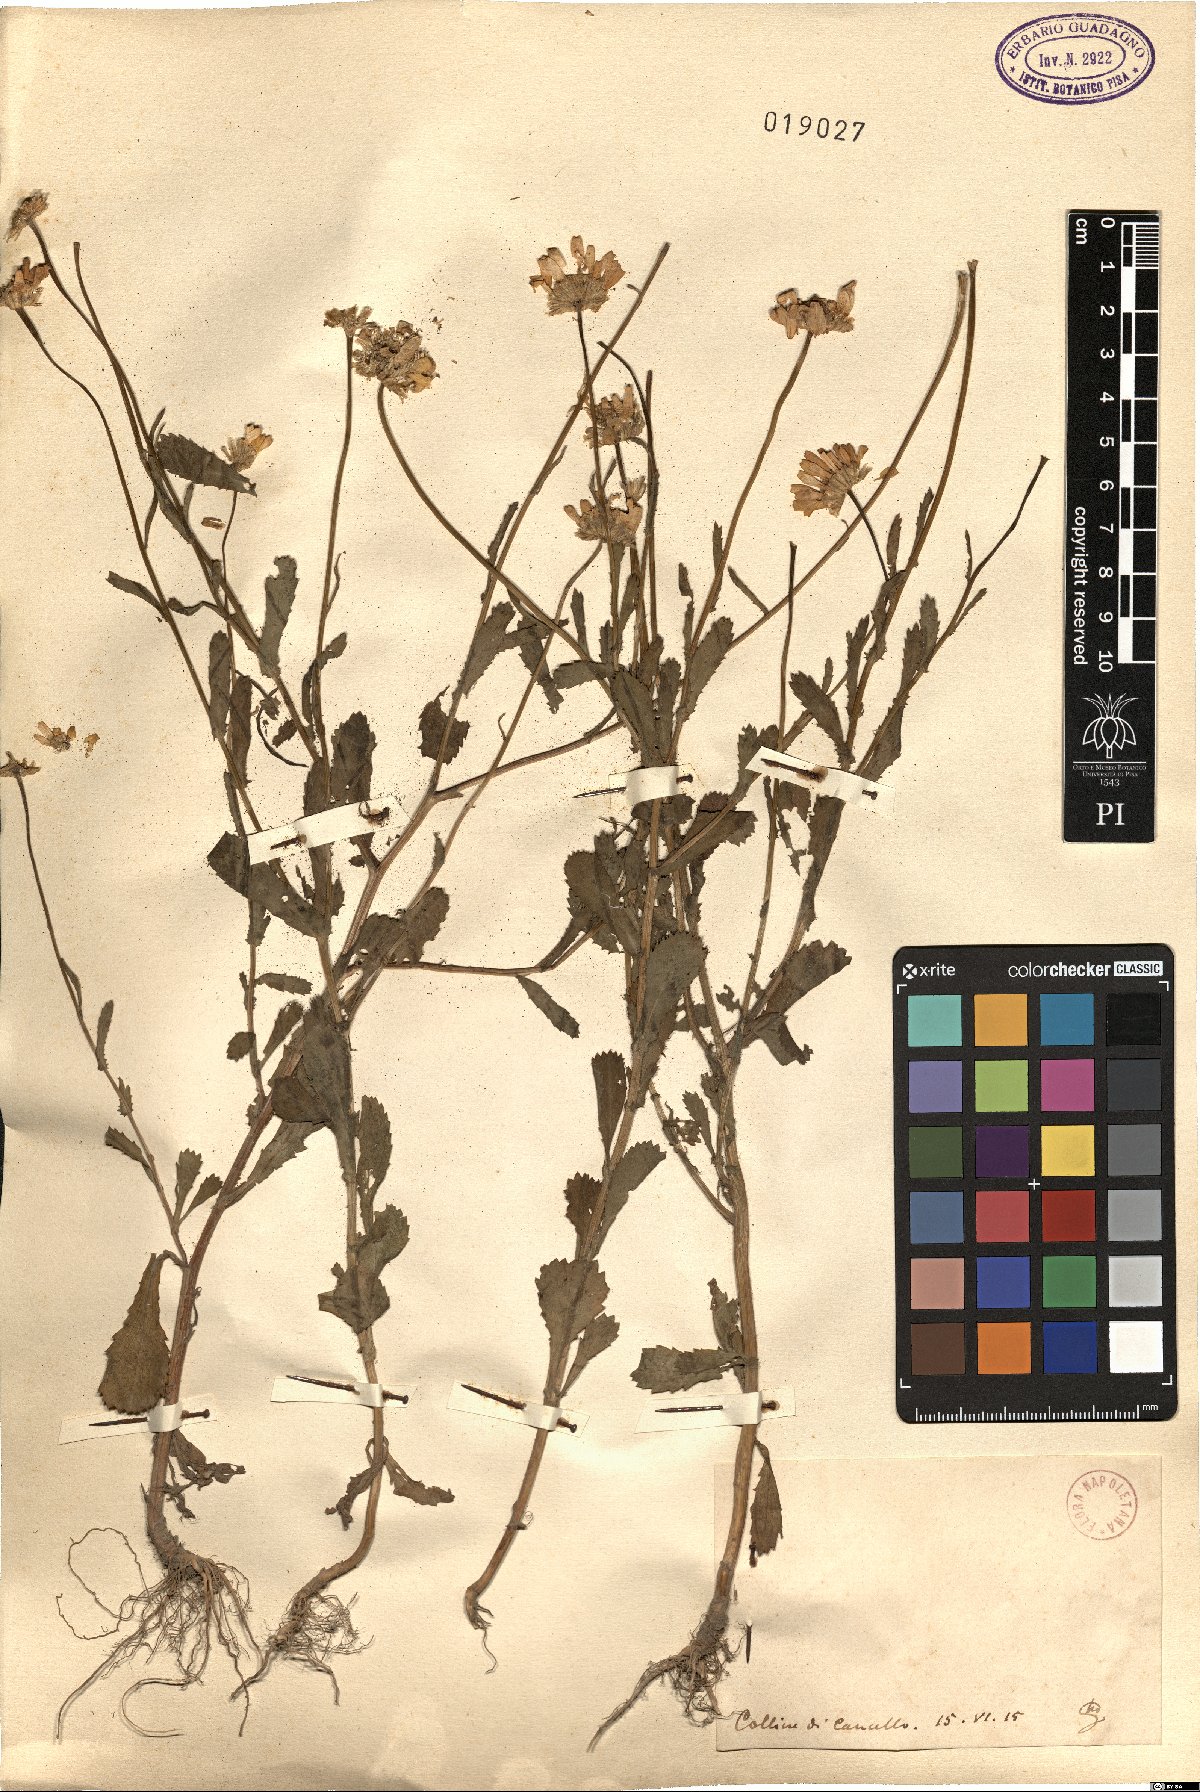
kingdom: Plantae
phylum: Tracheophyta
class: Magnoliopsida
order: Asterales
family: Asteraceae
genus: Pyrethrum
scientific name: Pyrethrum
